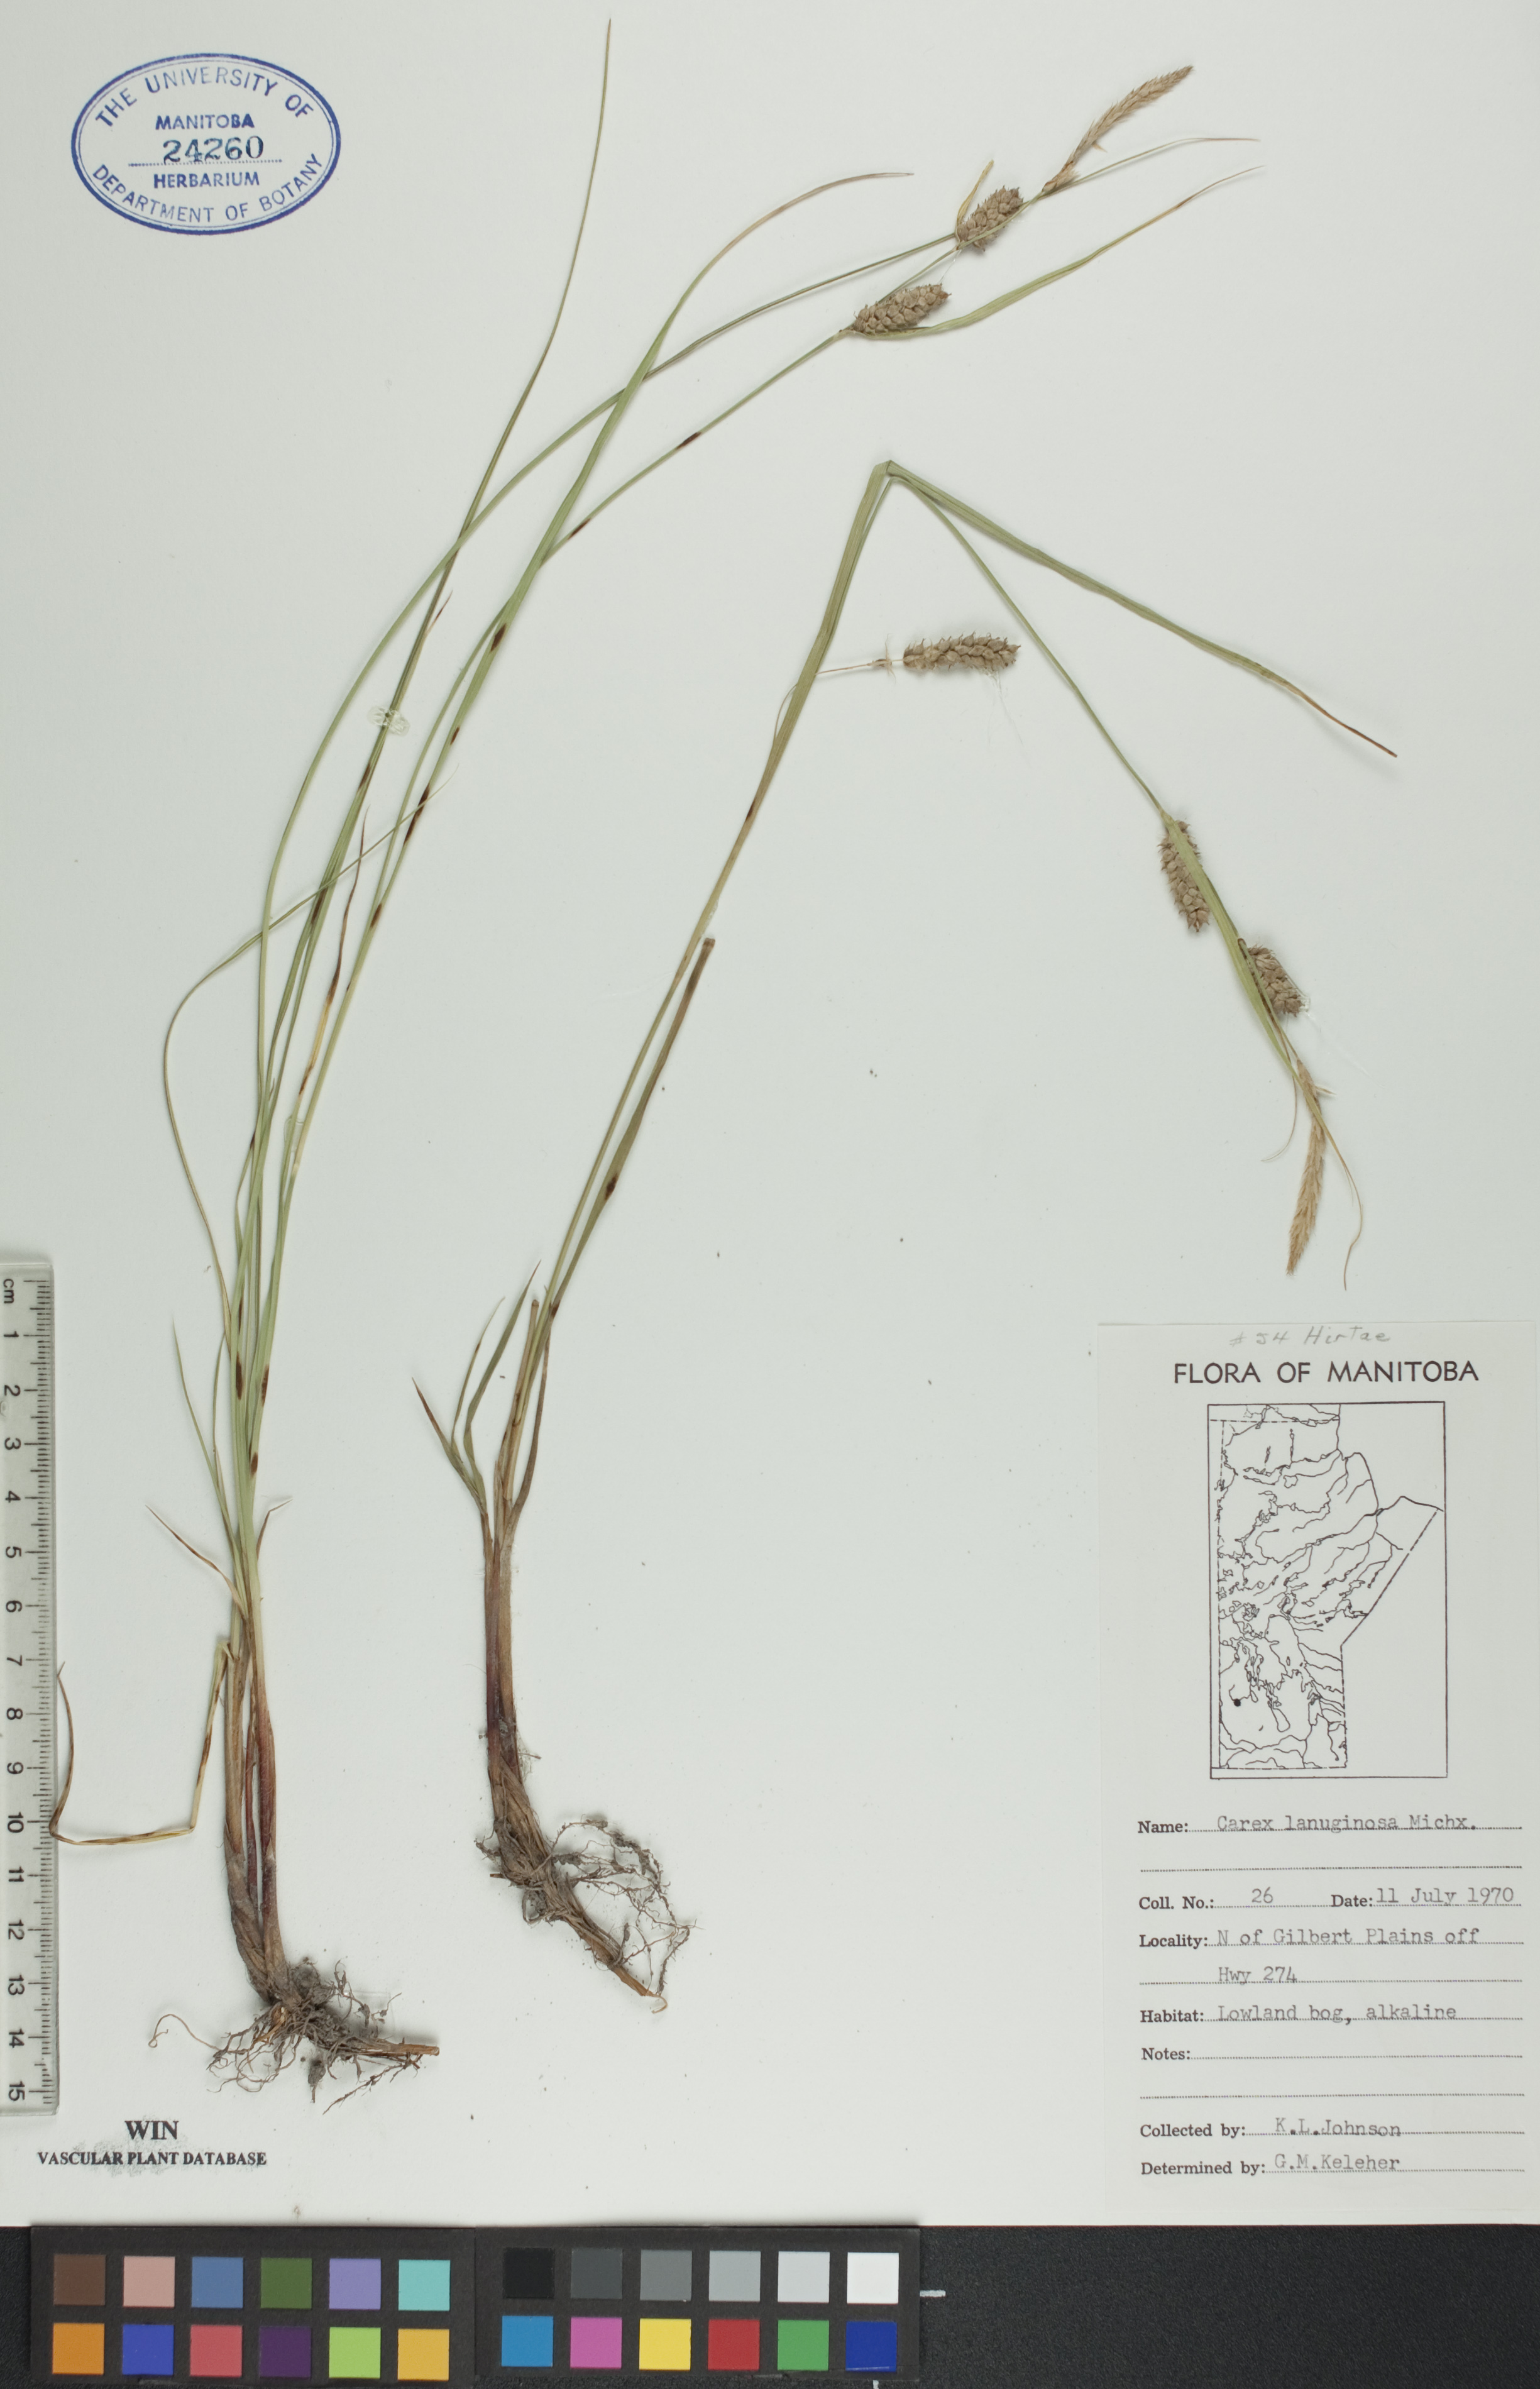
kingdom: Plantae
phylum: Tracheophyta
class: Liliopsida
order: Poales
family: Cyperaceae
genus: Carex
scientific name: Carex lasiocarpa
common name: Slender sedge
